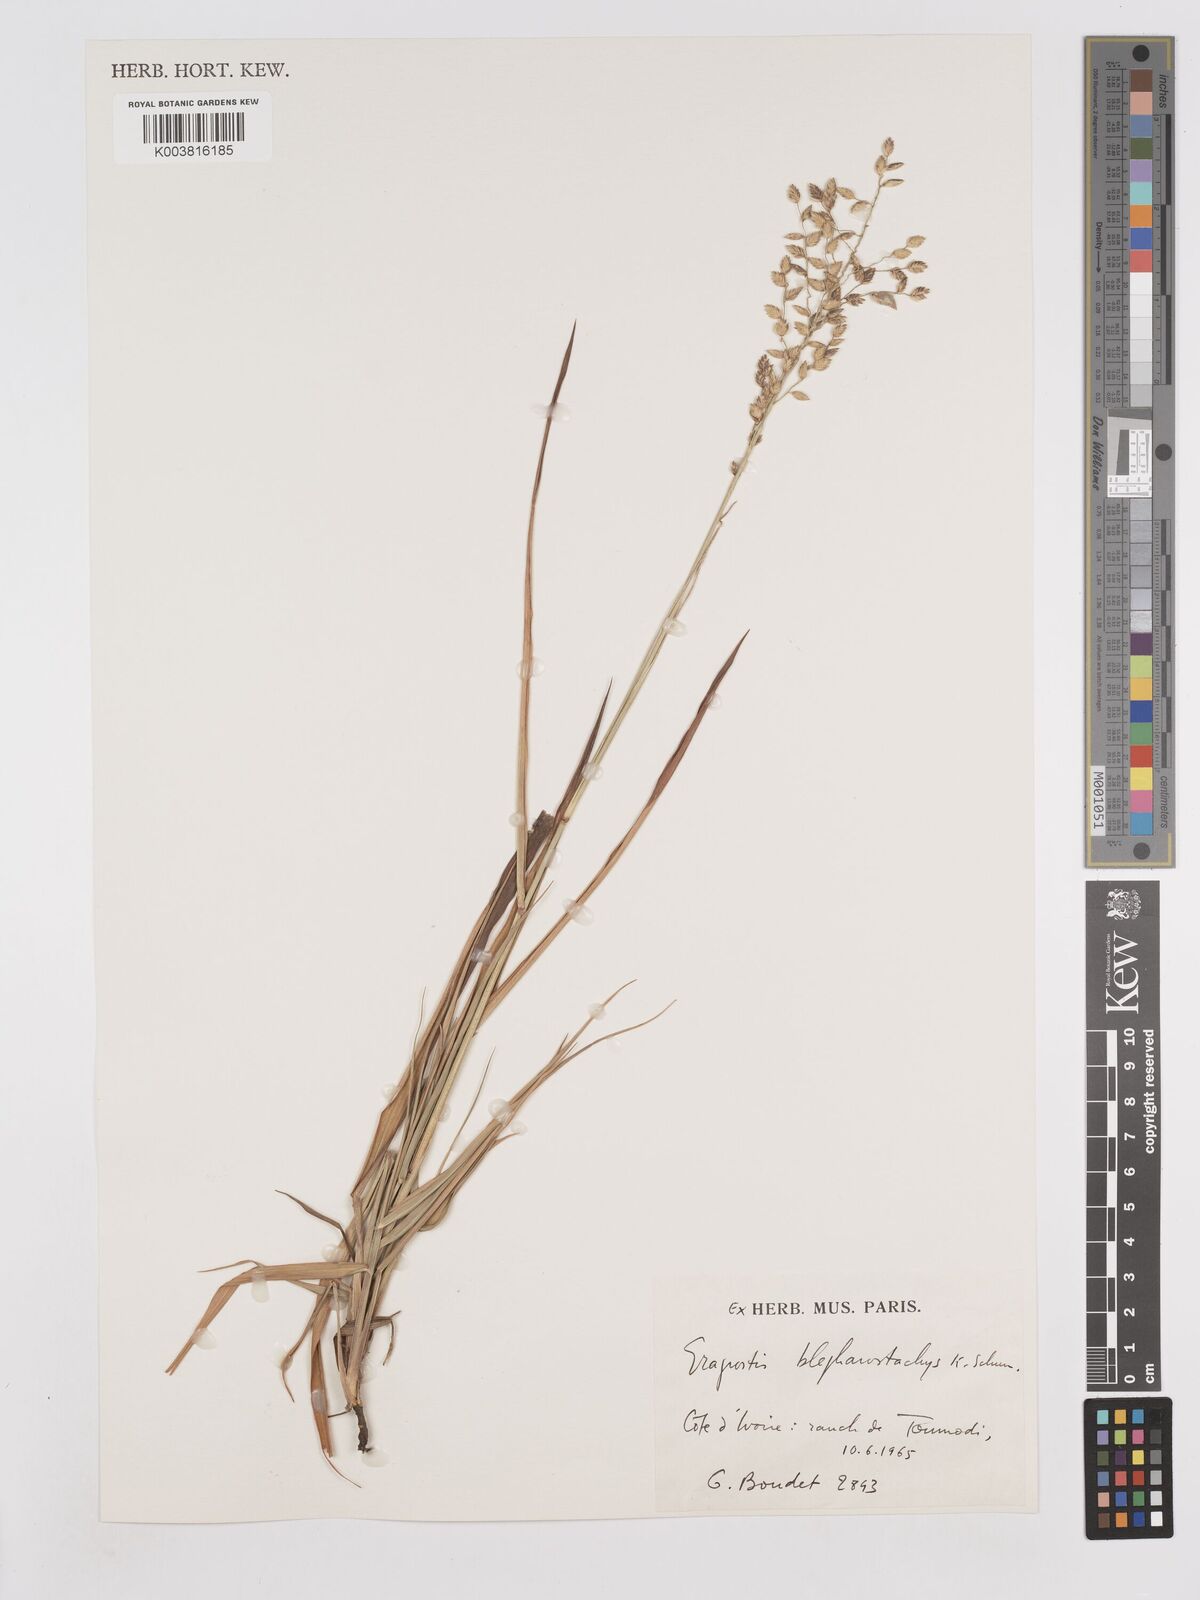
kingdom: Plantae
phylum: Tracheophyta
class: Liliopsida
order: Poales
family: Poaceae
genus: Eragrostis
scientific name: Eragrostis blepharostachya
